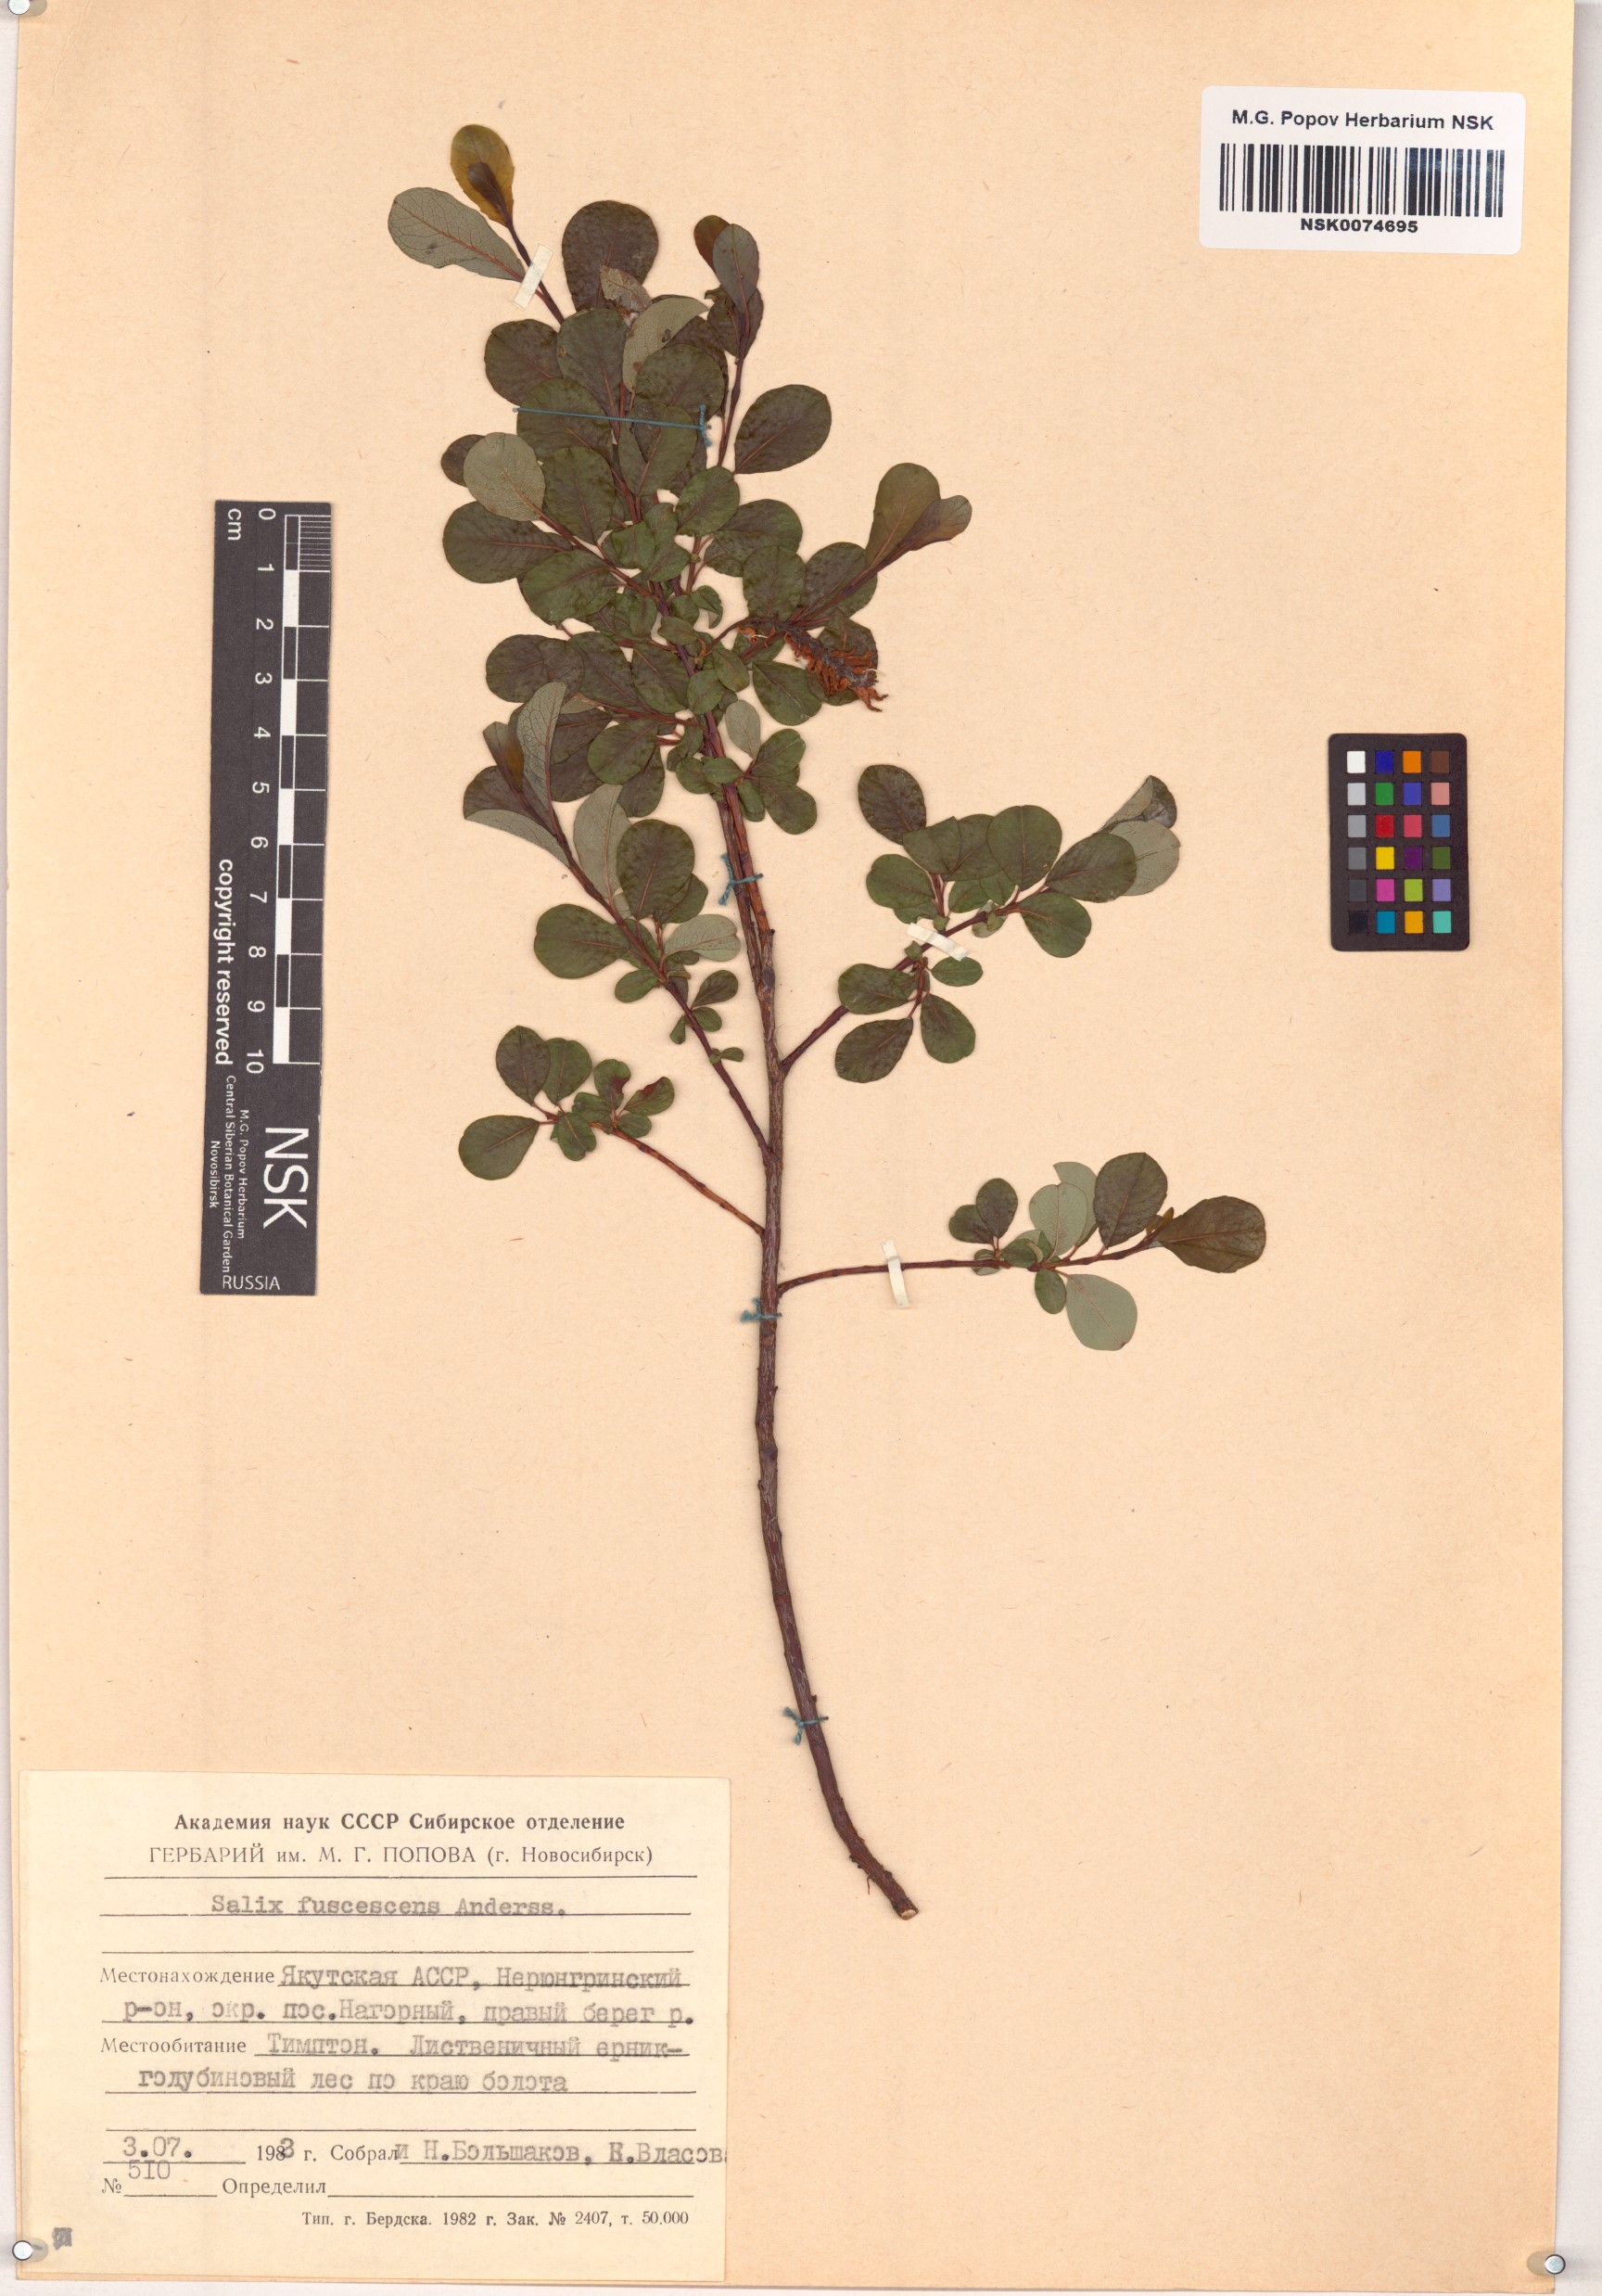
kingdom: Plantae
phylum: Tracheophyta
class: Magnoliopsida
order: Malpighiales
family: Salicaceae
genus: Salix
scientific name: Salix fuscescens
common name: Brownish willow
